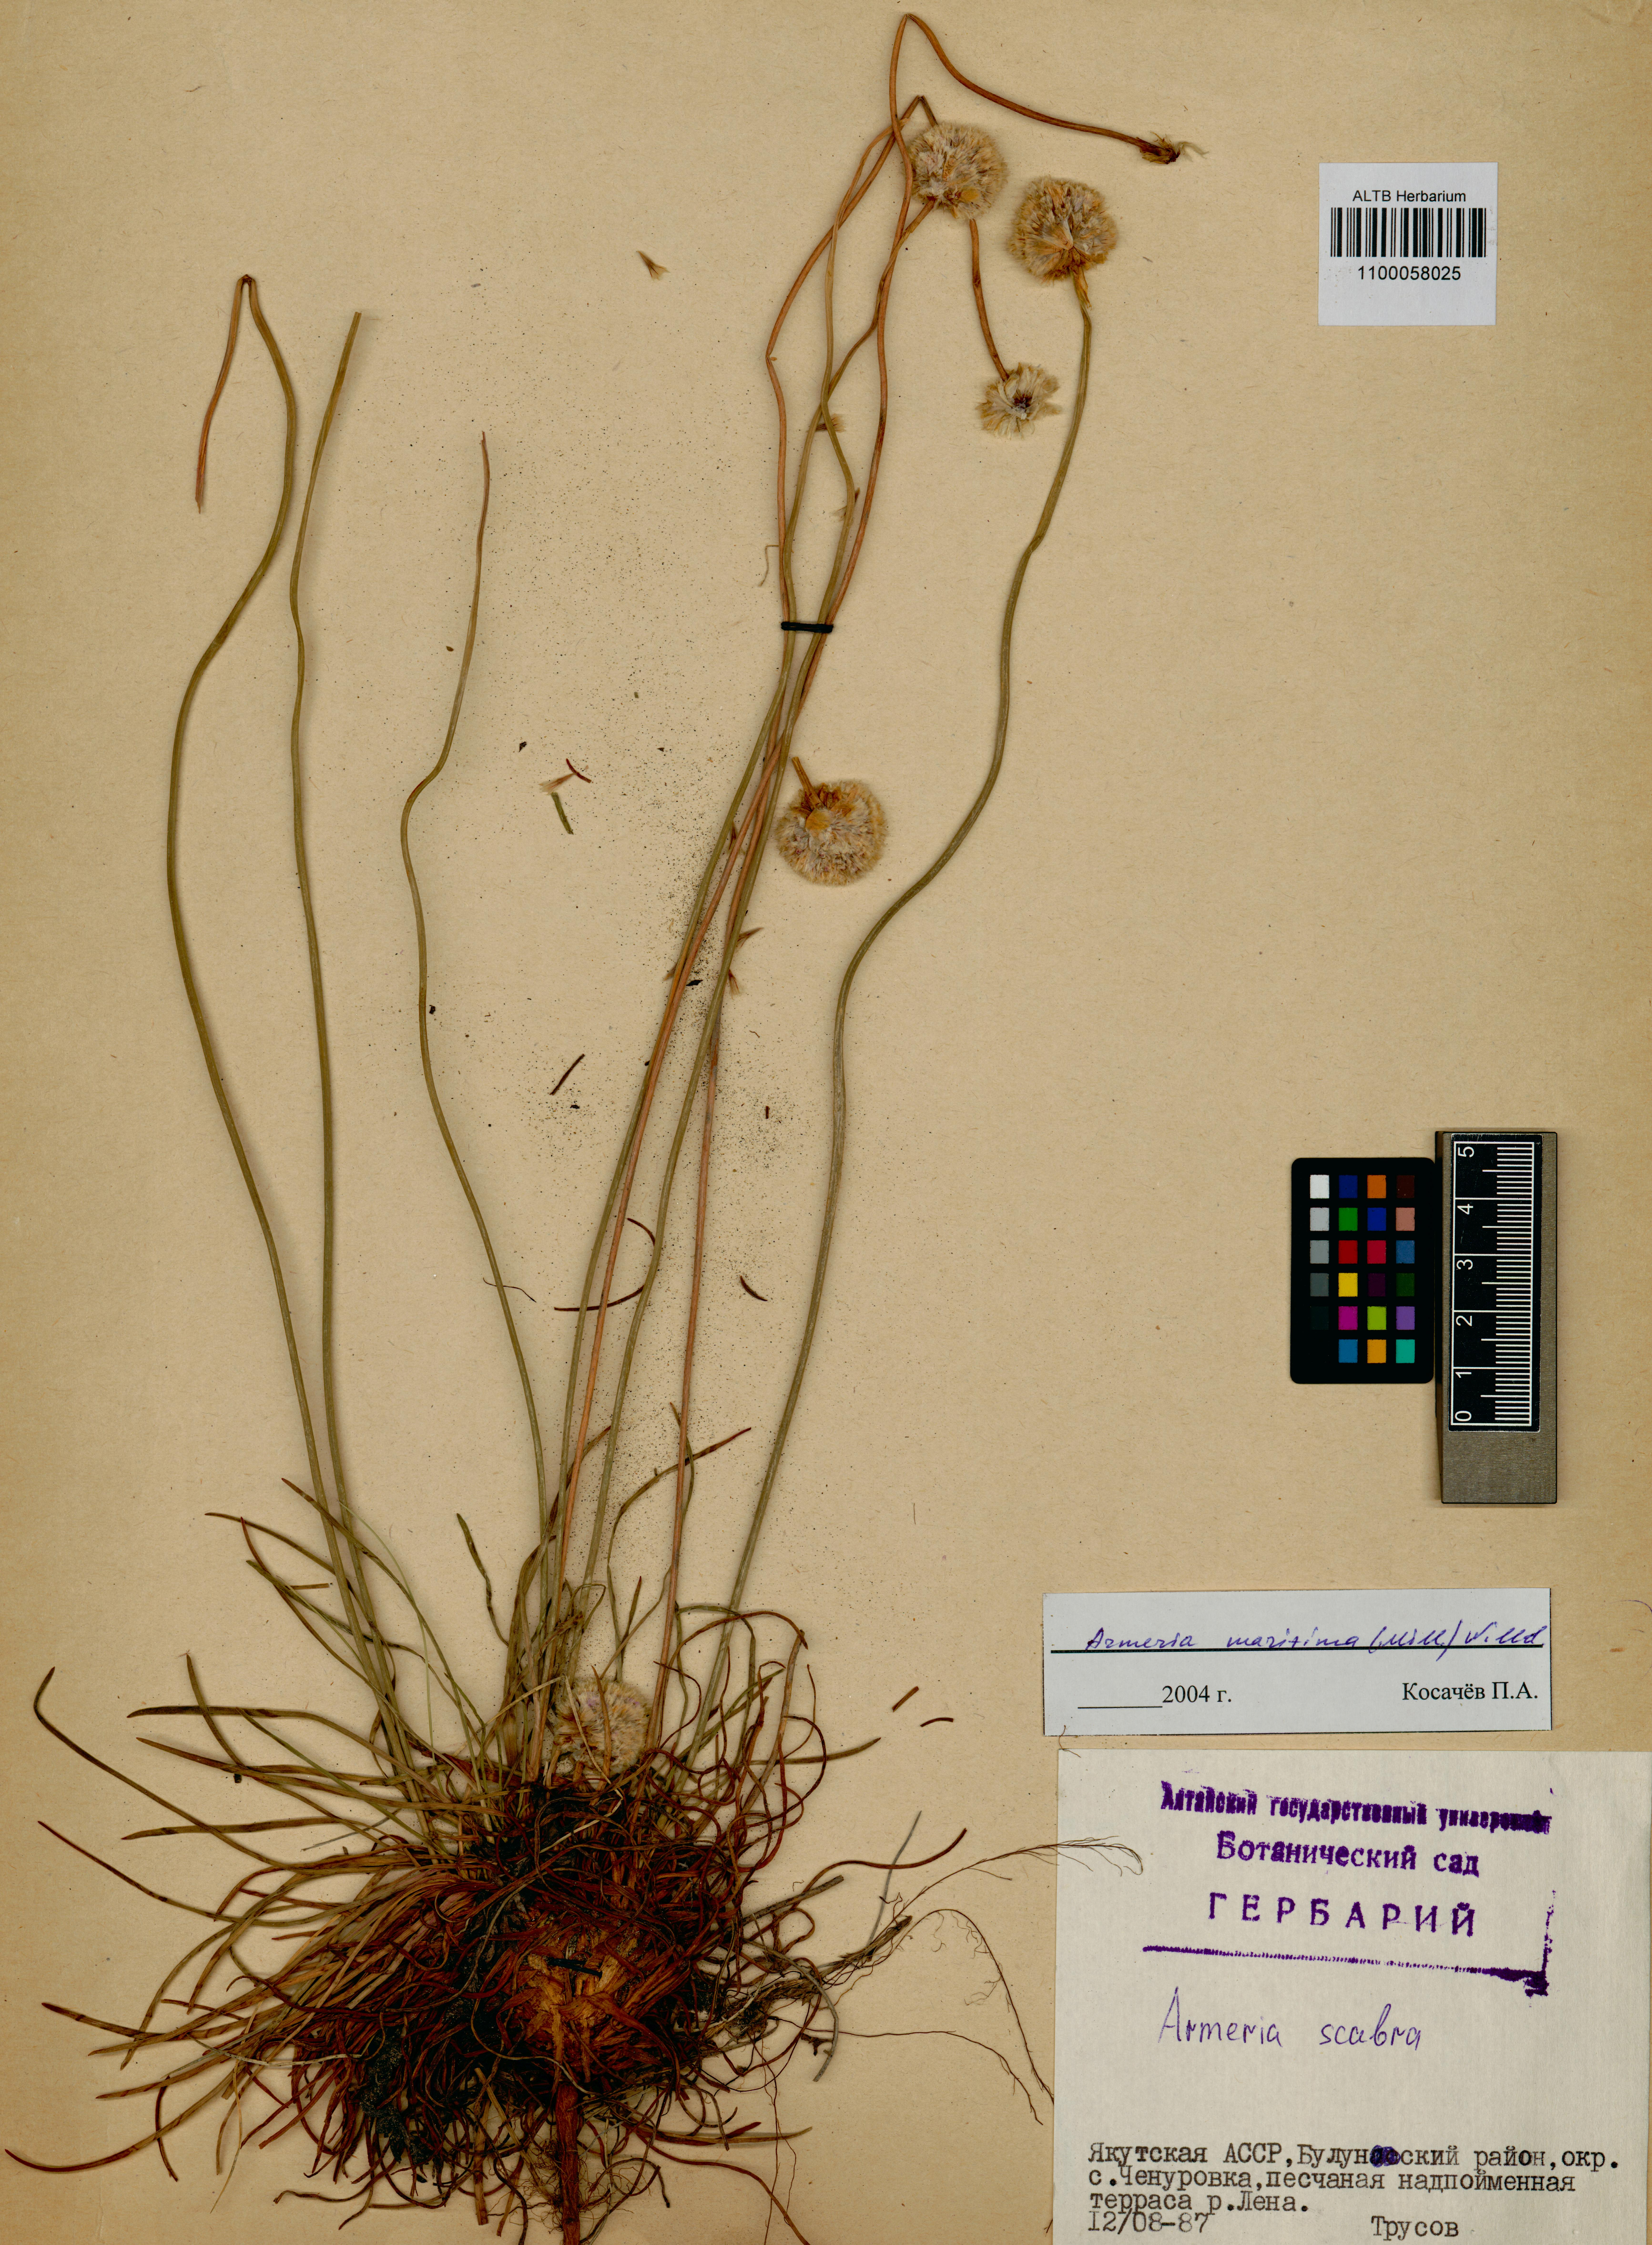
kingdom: Plantae
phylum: Tracheophyta
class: Magnoliopsida
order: Caryophyllales
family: Plumbaginaceae
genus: Armeria
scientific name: Armeria maritima
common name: Thrift
